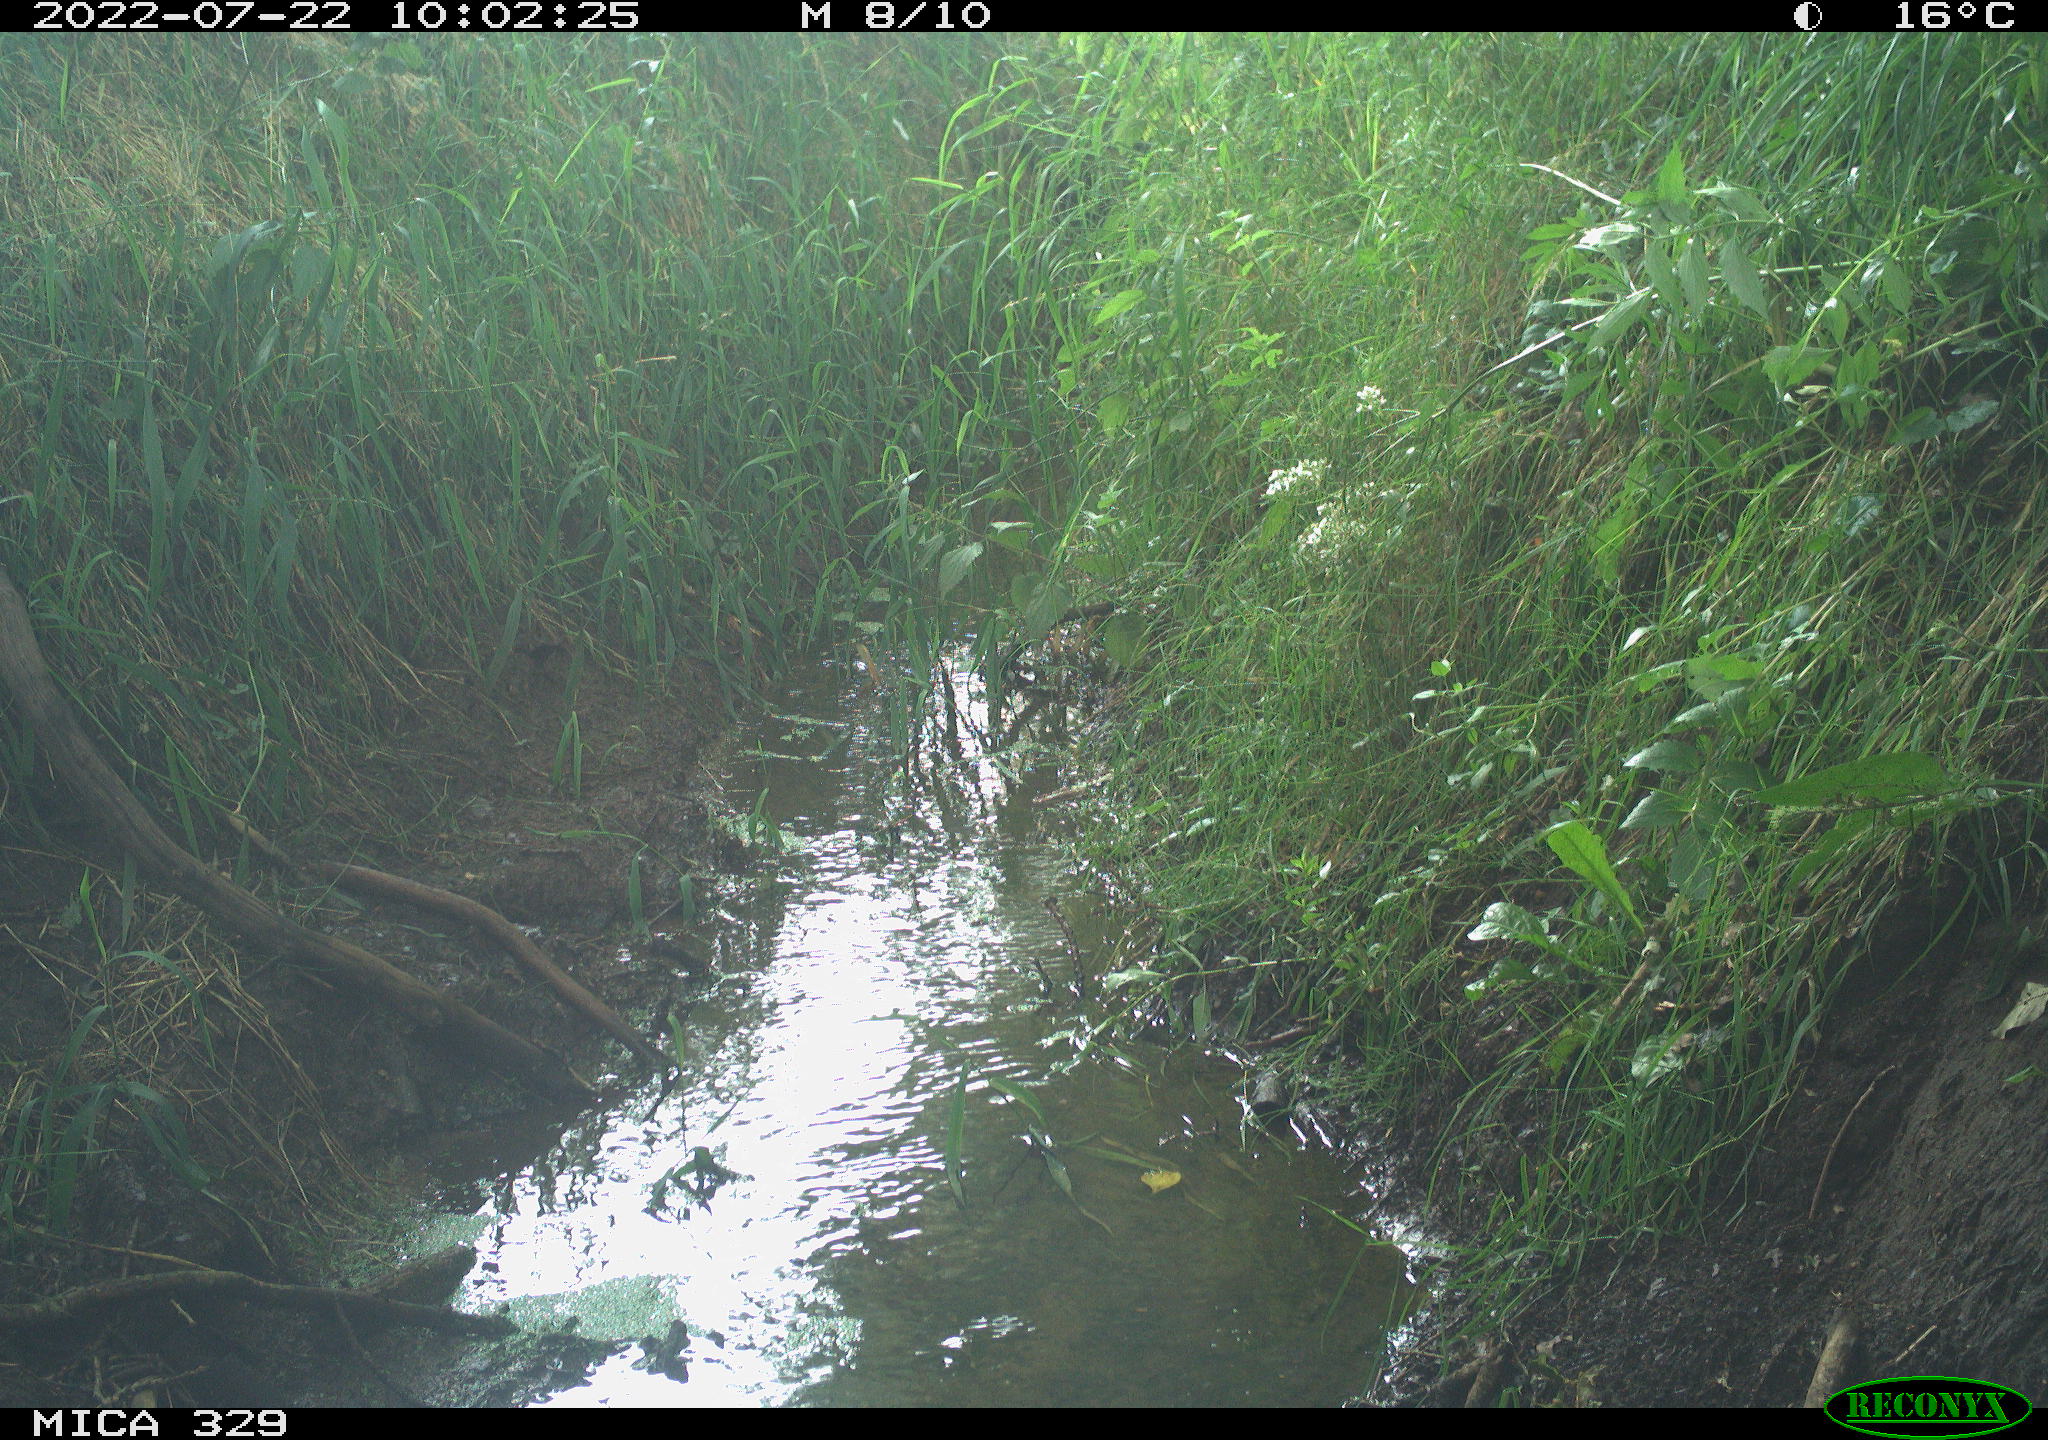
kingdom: Animalia
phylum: Chordata
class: Aves
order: Galliformes
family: Phasianidae
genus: Phasianus
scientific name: Phasianus colchicus
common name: Common pheasant
